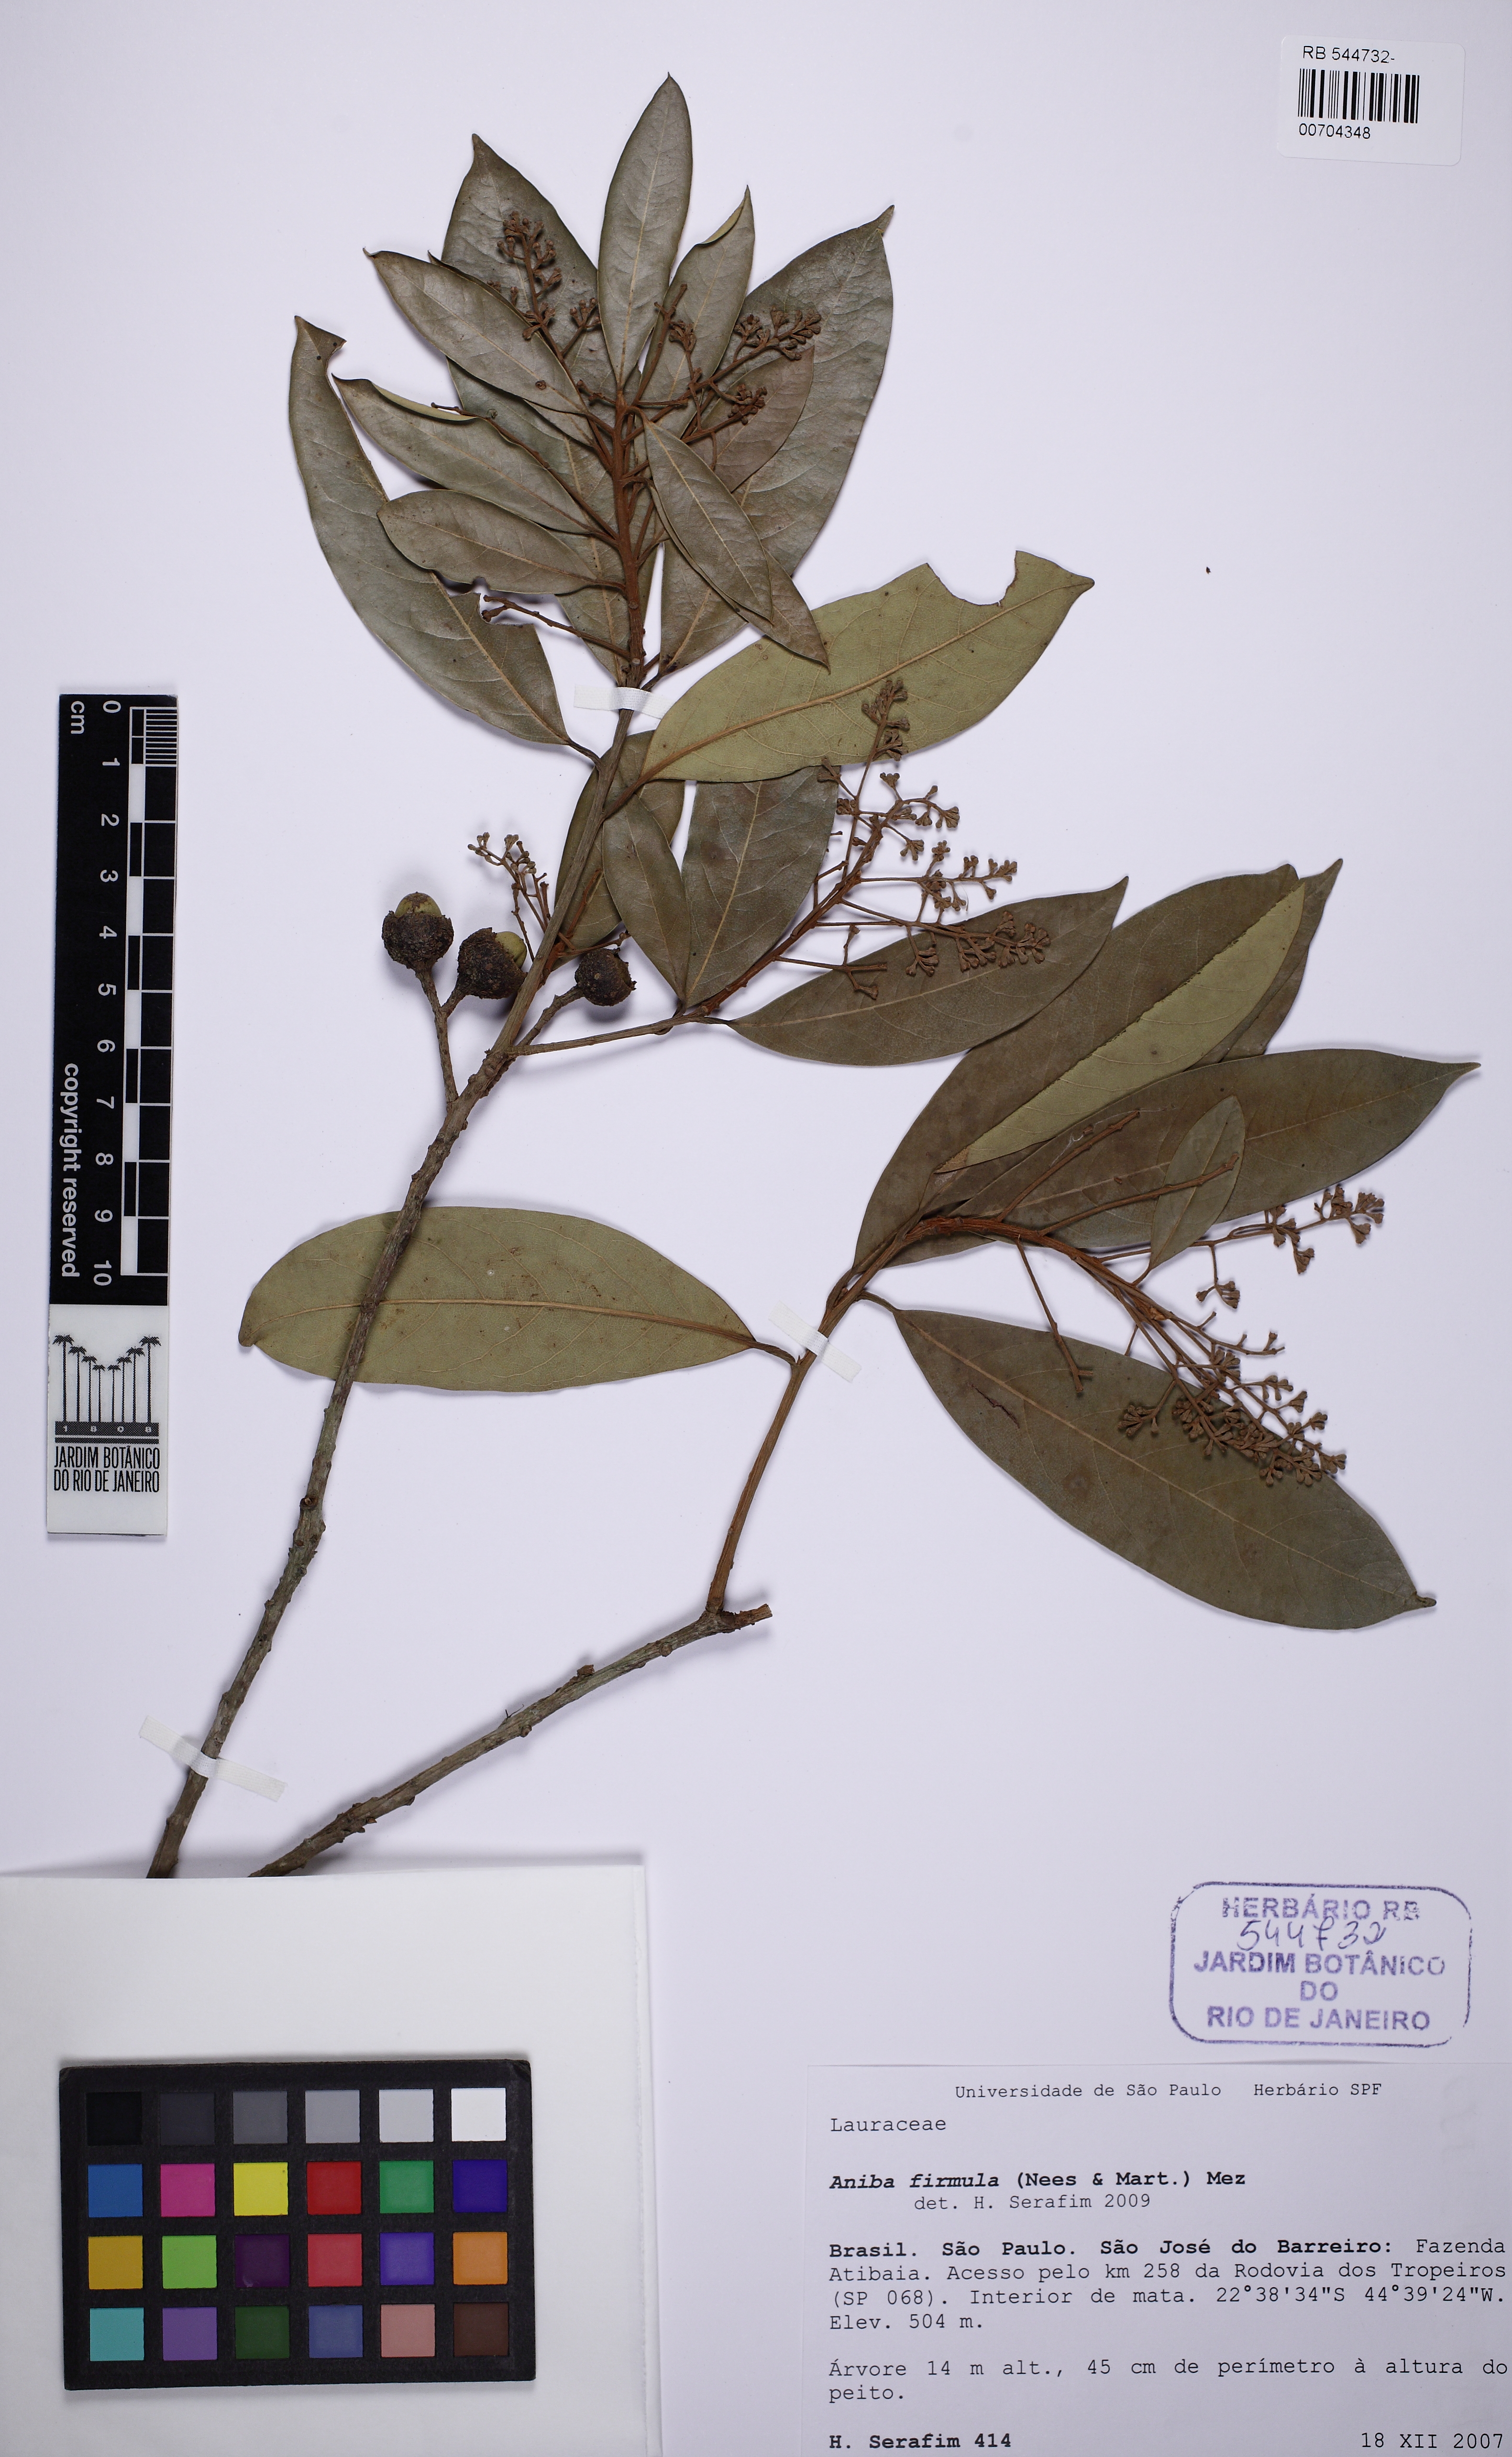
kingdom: Plantae
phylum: Tracheophyta
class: Magnoliopsida
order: Laurales
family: Lauraceae
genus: Aniba
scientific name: Aniba firmula
